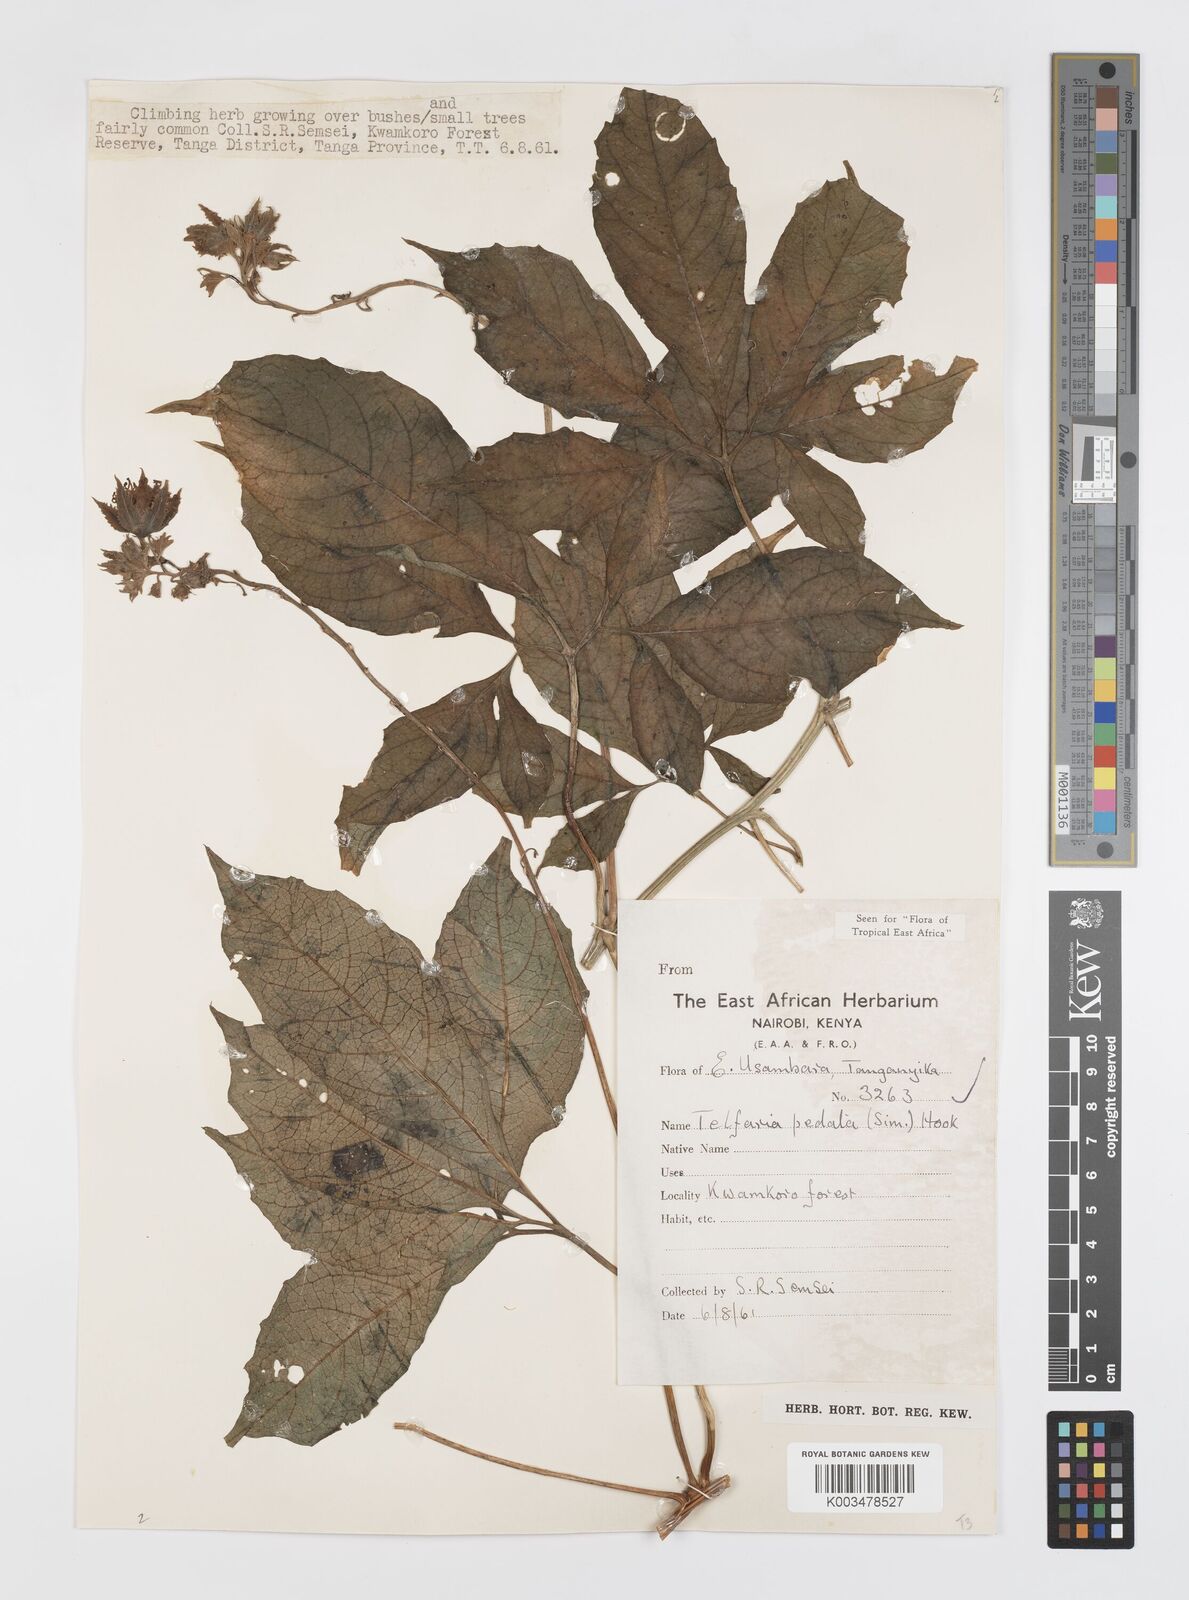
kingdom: Plantae
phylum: Tracheophyta
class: Magnoliopsida
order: Cucurbitales
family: Cucurbitaceae
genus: Telfairia
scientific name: Telfairia pedata
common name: Zanzibar oilvine
